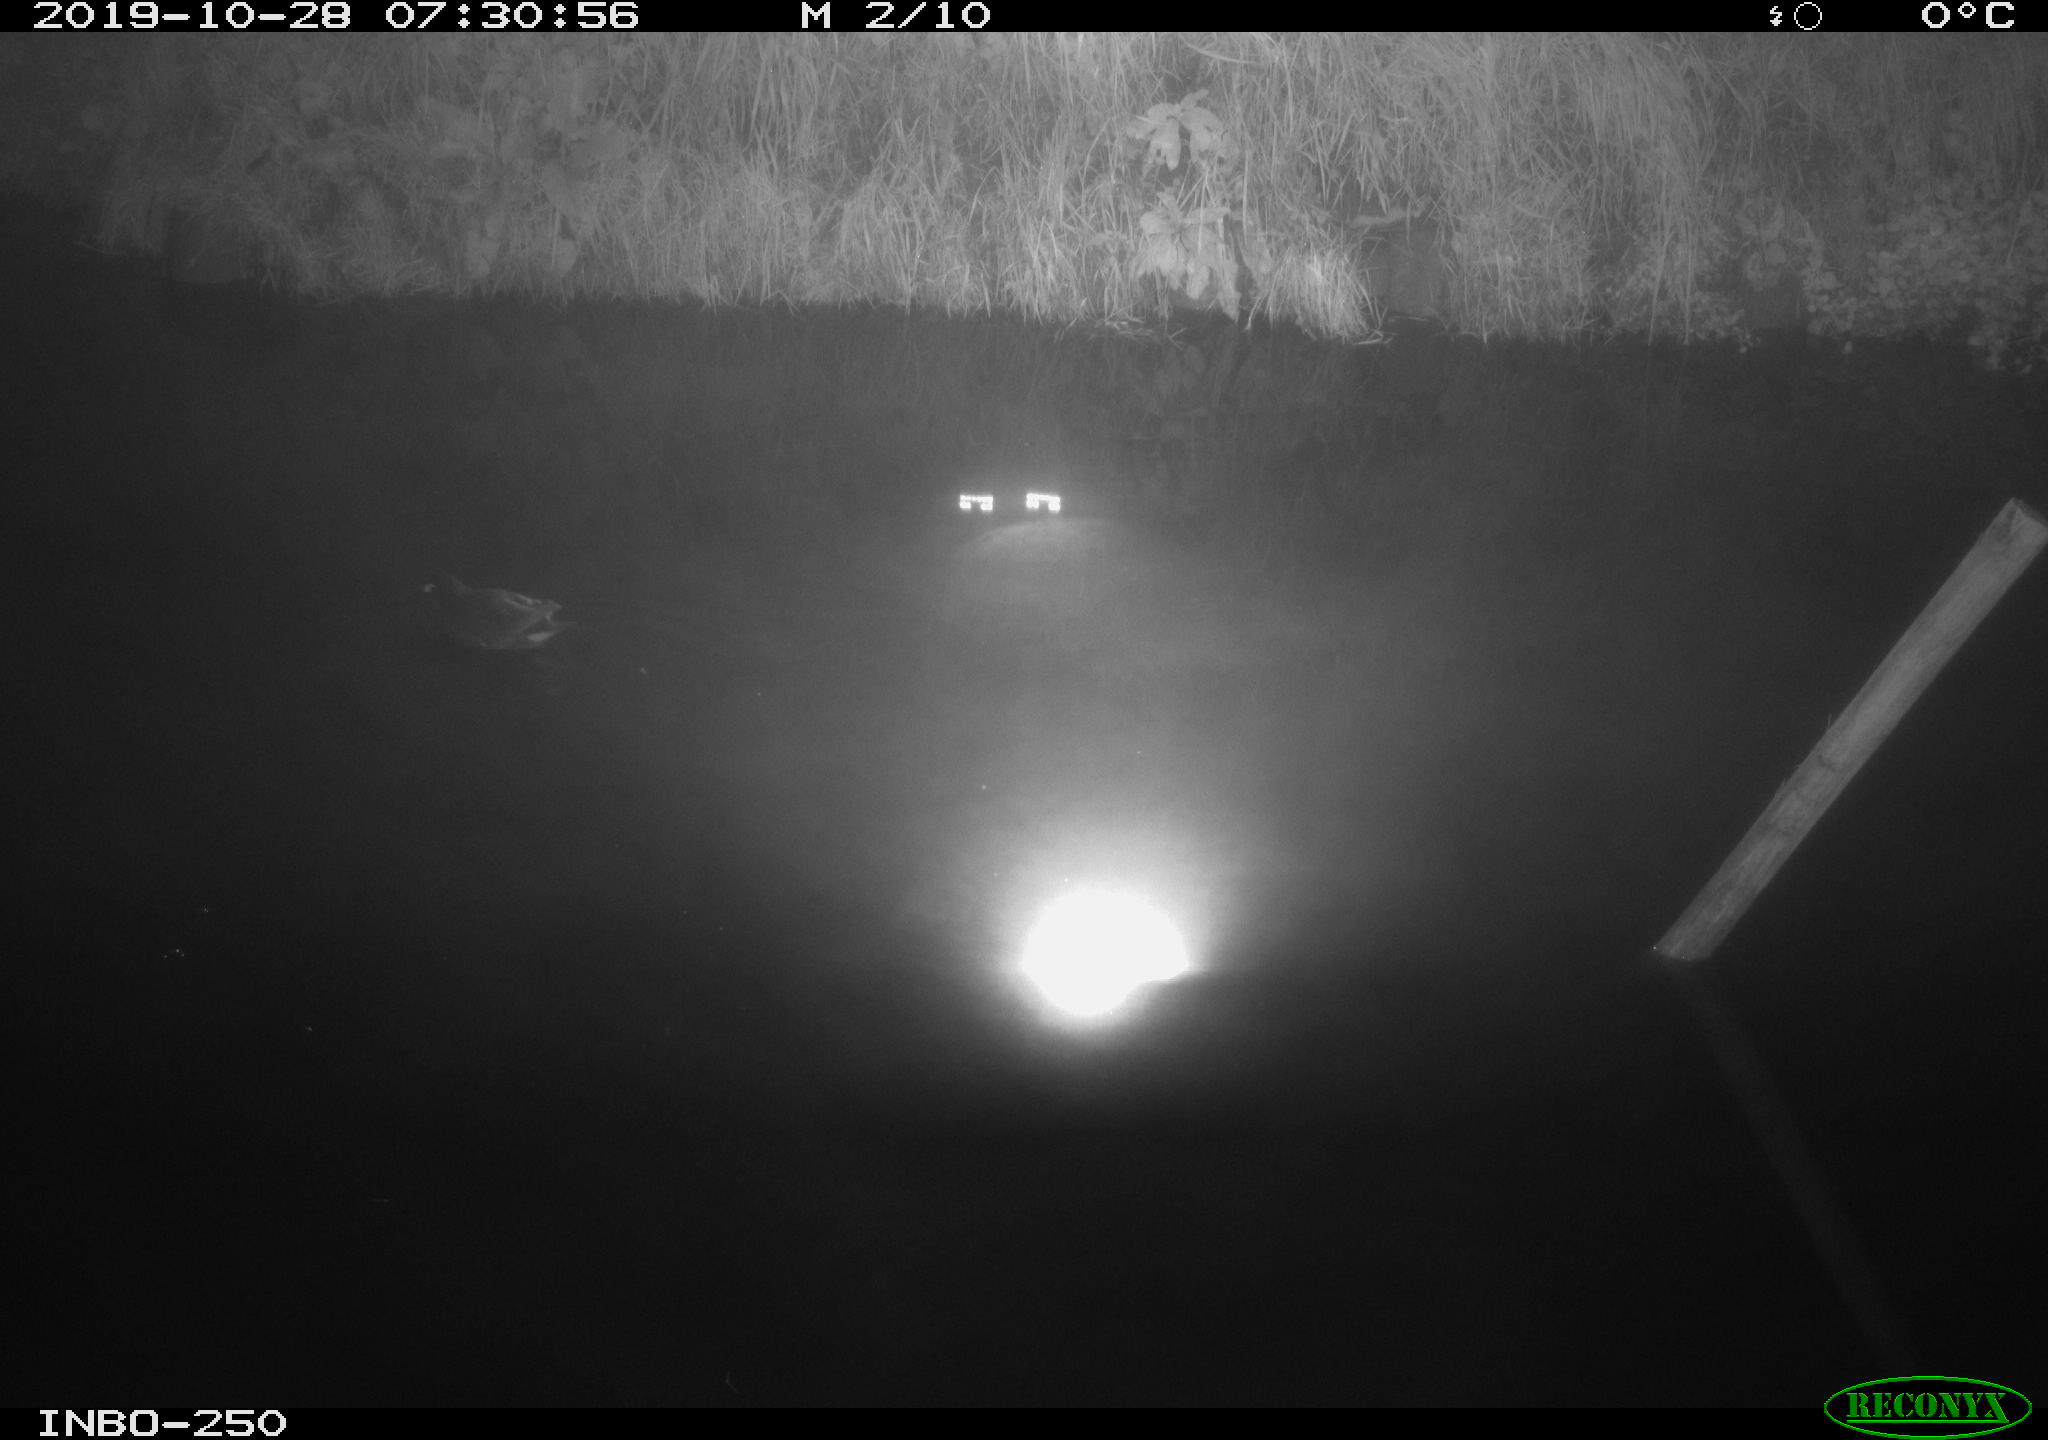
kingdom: Animalia
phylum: Chordata
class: Aves
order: Gruiformes
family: Rallidae
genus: Gallinula
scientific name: Gallinula chloropus
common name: Common moorhen
